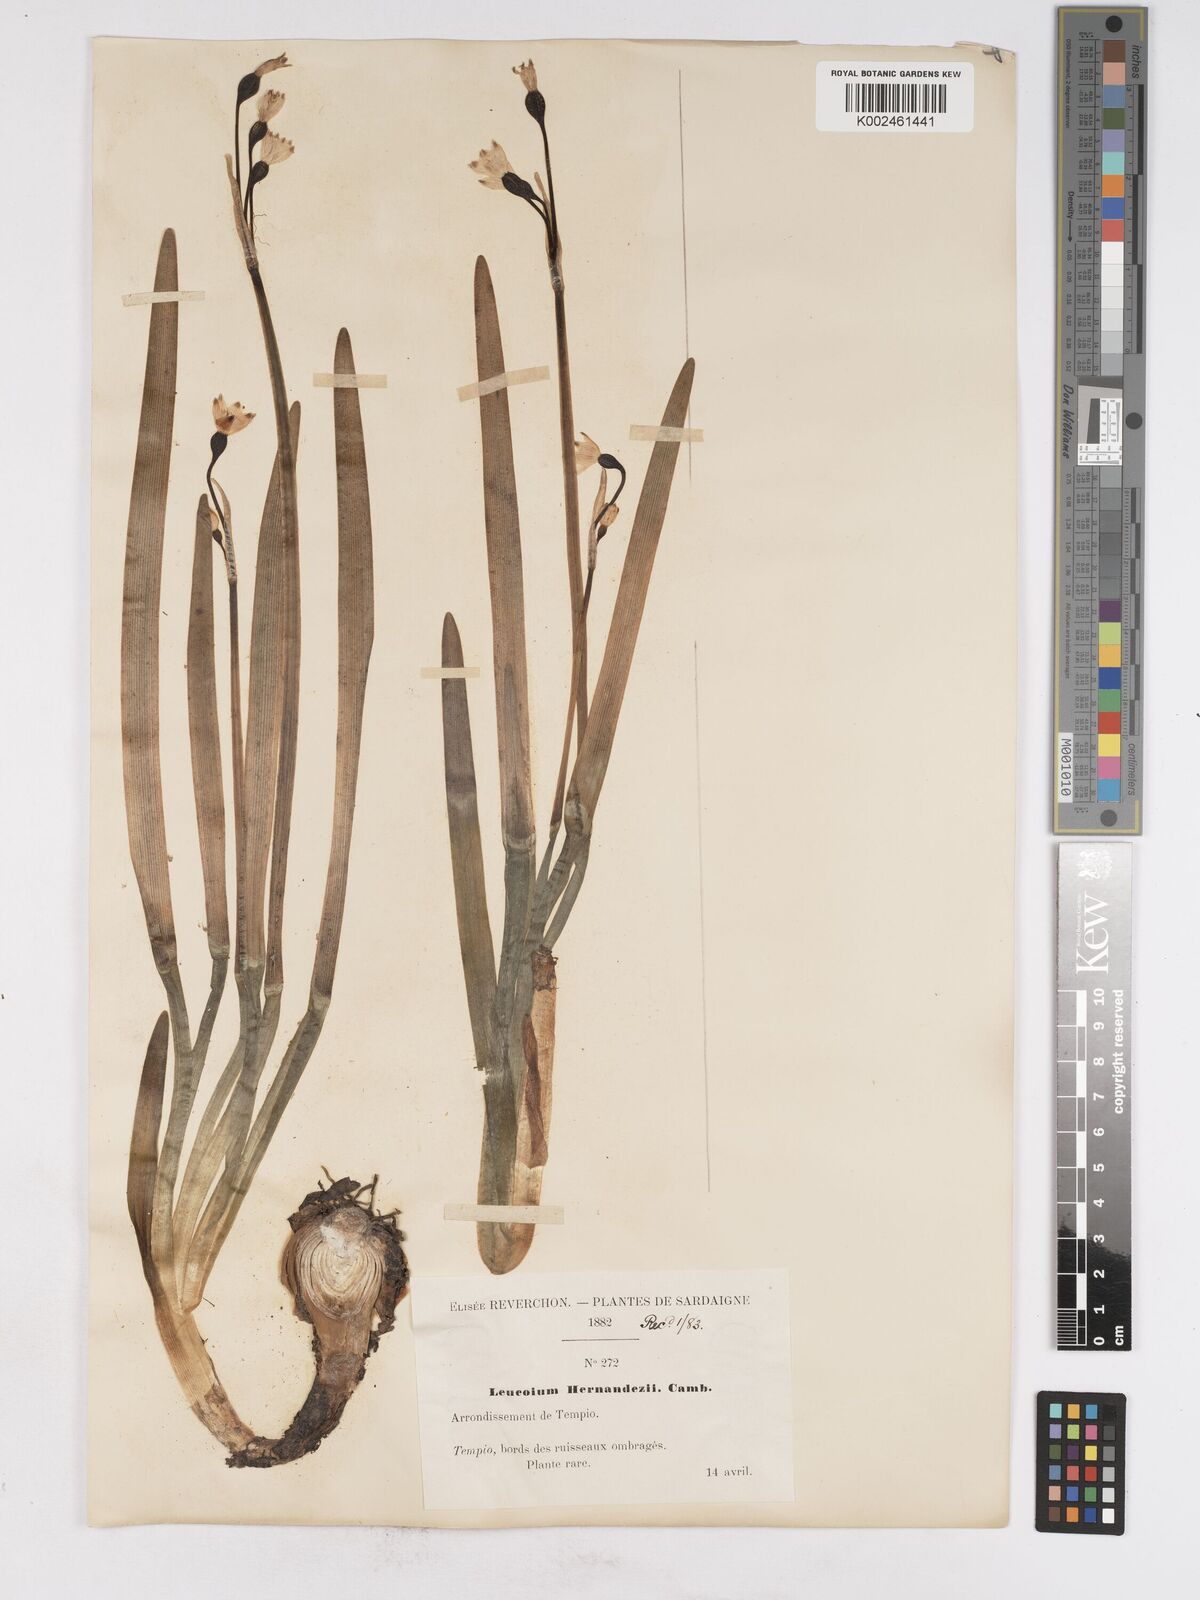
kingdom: Plantae
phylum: Tracheophyta
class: Liliopsida
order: Asparagales
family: Amaryllidaceae
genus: Leucojum
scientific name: Leucojum aestivum
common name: Summer snowflake
